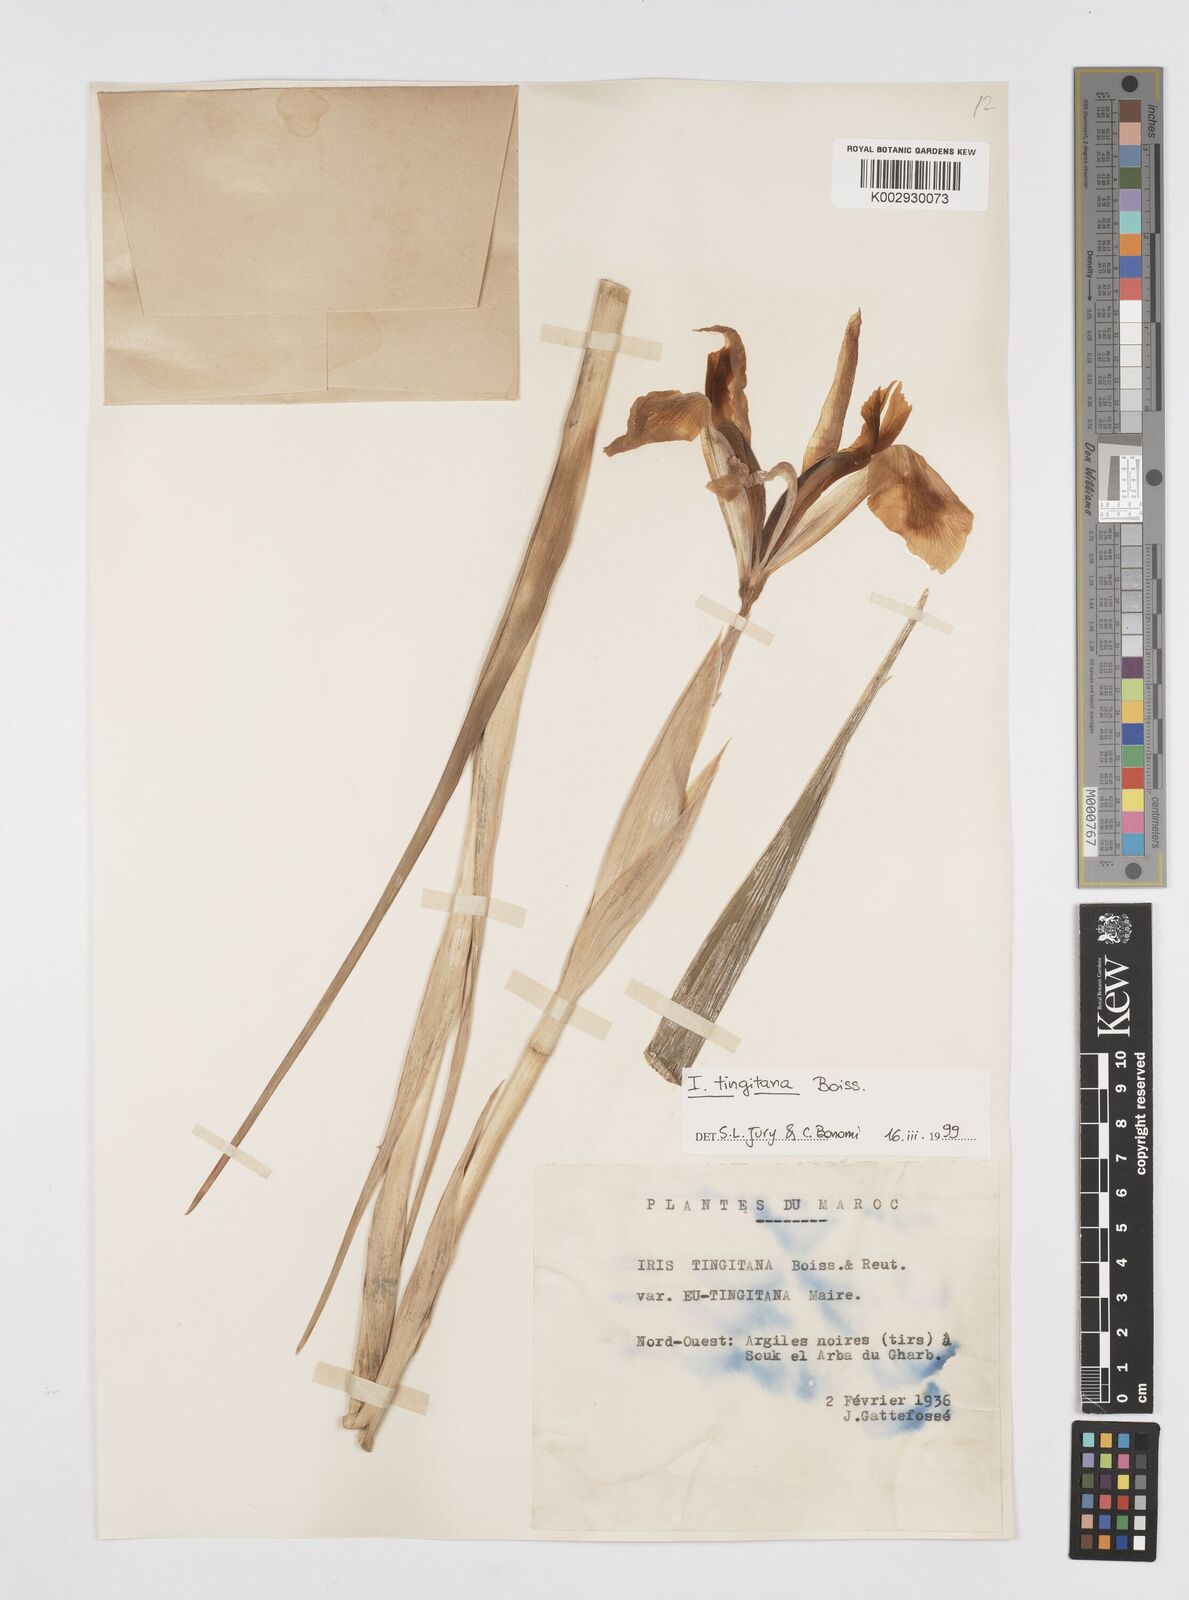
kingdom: Plantae
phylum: Tracheophyta
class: Liliopsida
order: Asparagales
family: Iridaceae
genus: Iris
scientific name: Iris tingitana
